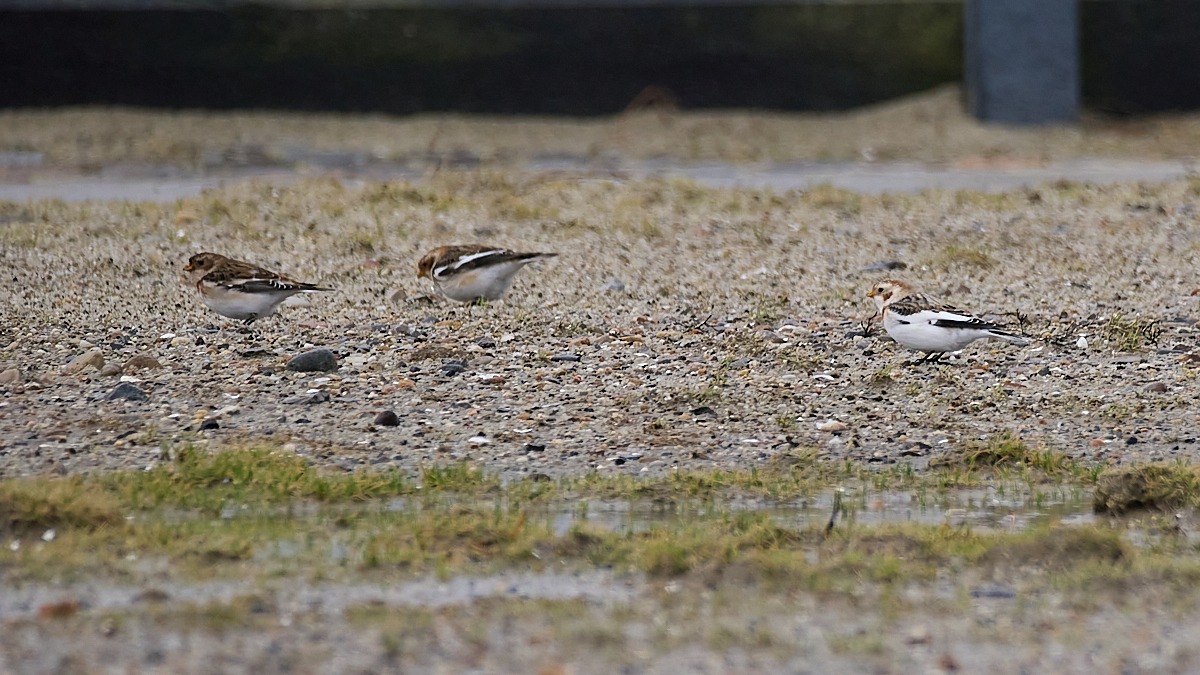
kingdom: Animalia
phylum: Chordata
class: Aves
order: Passeriformes
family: Calcariidae
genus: Plectrophenax
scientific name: Plectrophenax nivalis
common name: Snespurv
